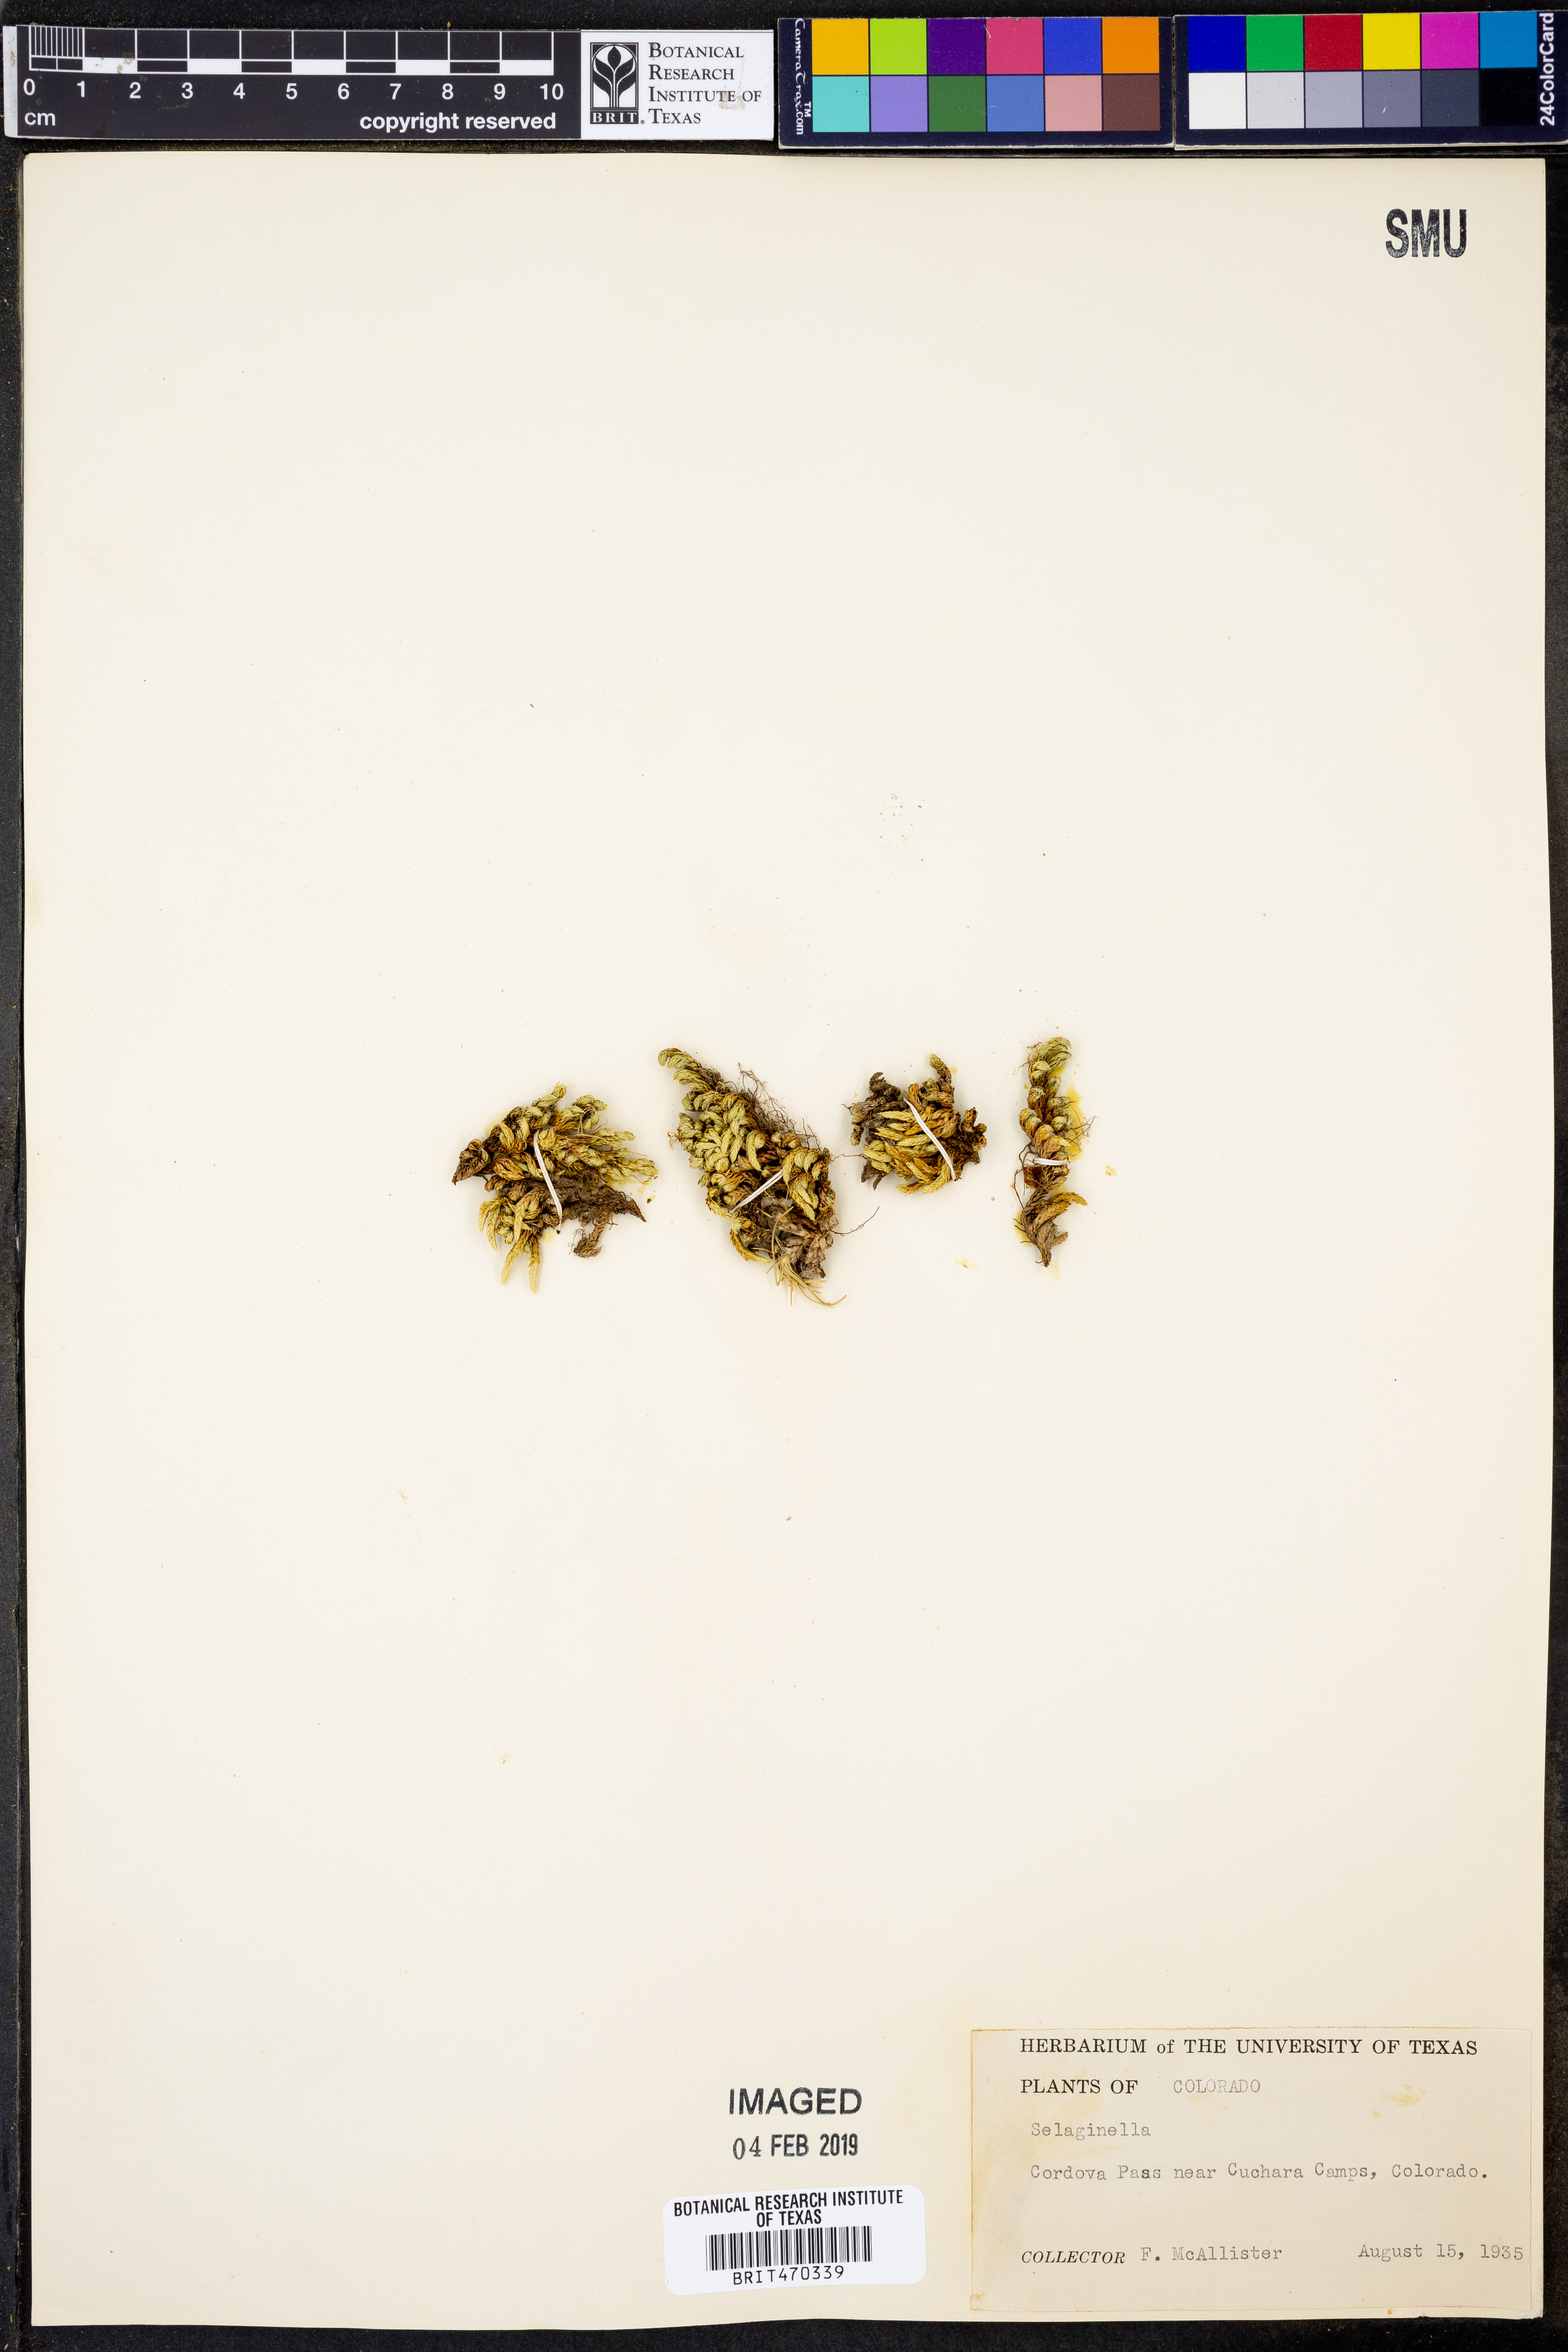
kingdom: Plantae
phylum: Tracheophyta
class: Lycopodiopsida
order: Selaginellales
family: Selaginellaceae
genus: Selaginella
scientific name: Selaginella
